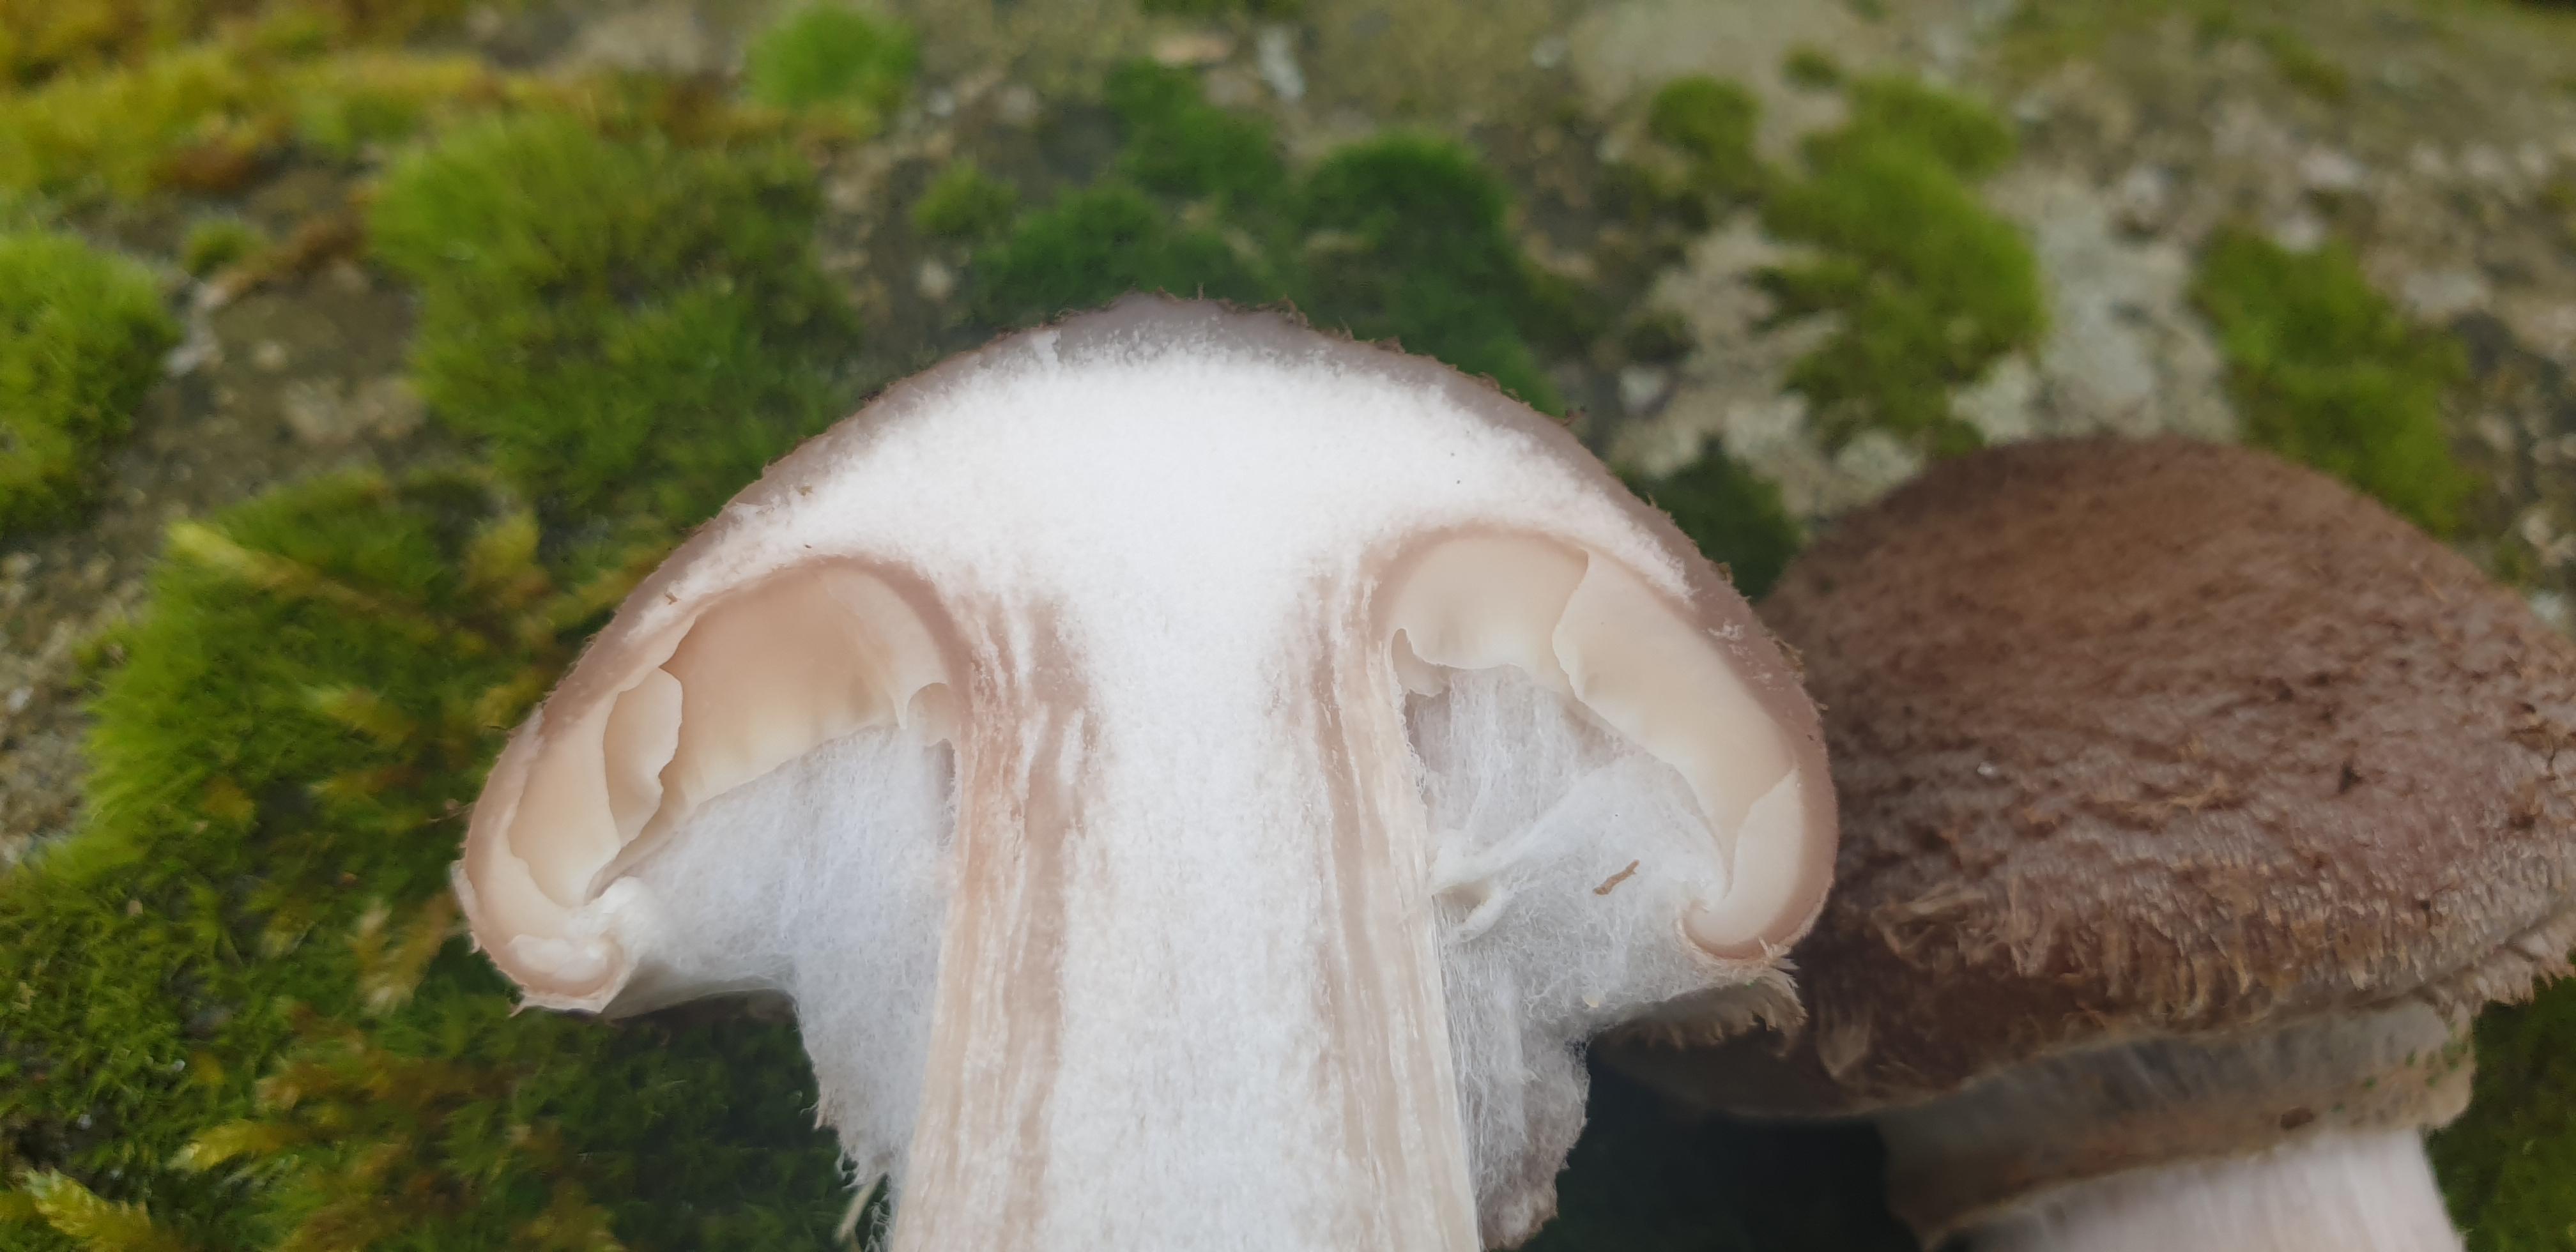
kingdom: Fungi
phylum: Basidiomycota
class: Agaricomycetes
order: Agaricales
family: Physalacriaceae
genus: Armillaria
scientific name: Armillaria lutea
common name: køllestokket honningsvamp
